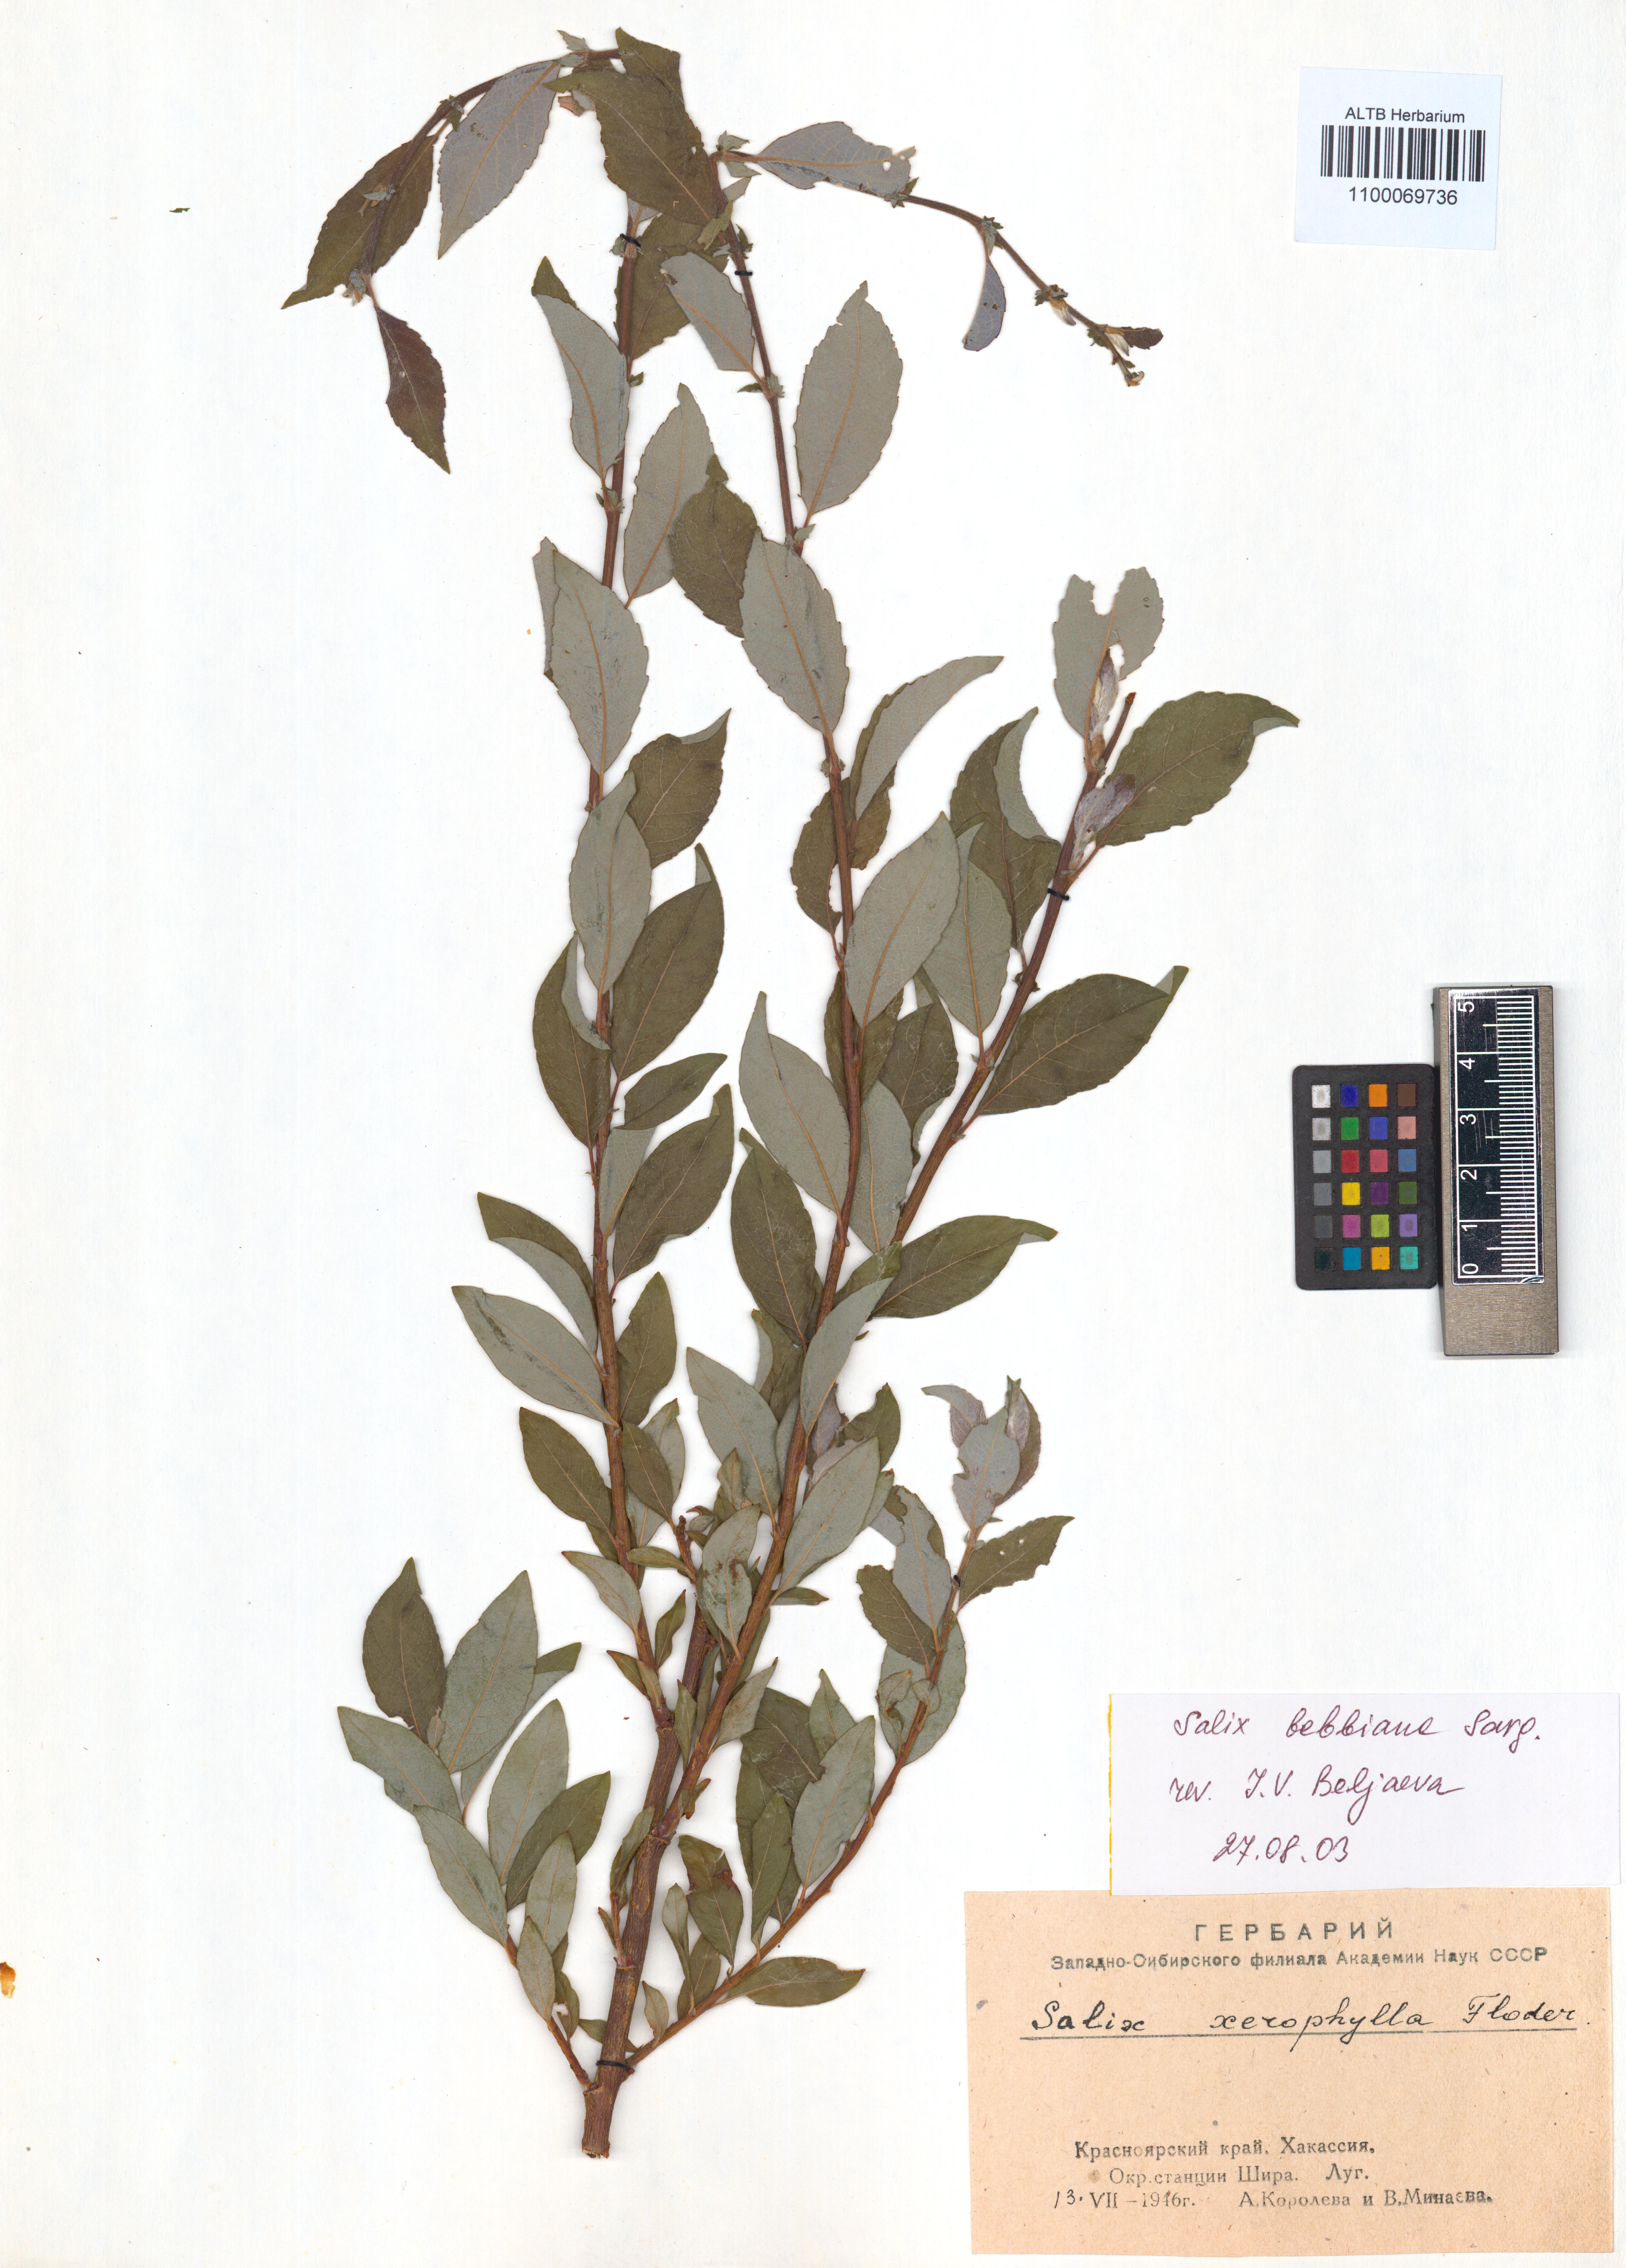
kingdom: Plantae
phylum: Tracheophyta
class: Magnoliopsida
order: Malpighiales
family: Salicaceae
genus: Salix
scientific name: Salix bebbiana
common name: Bebb's willow
